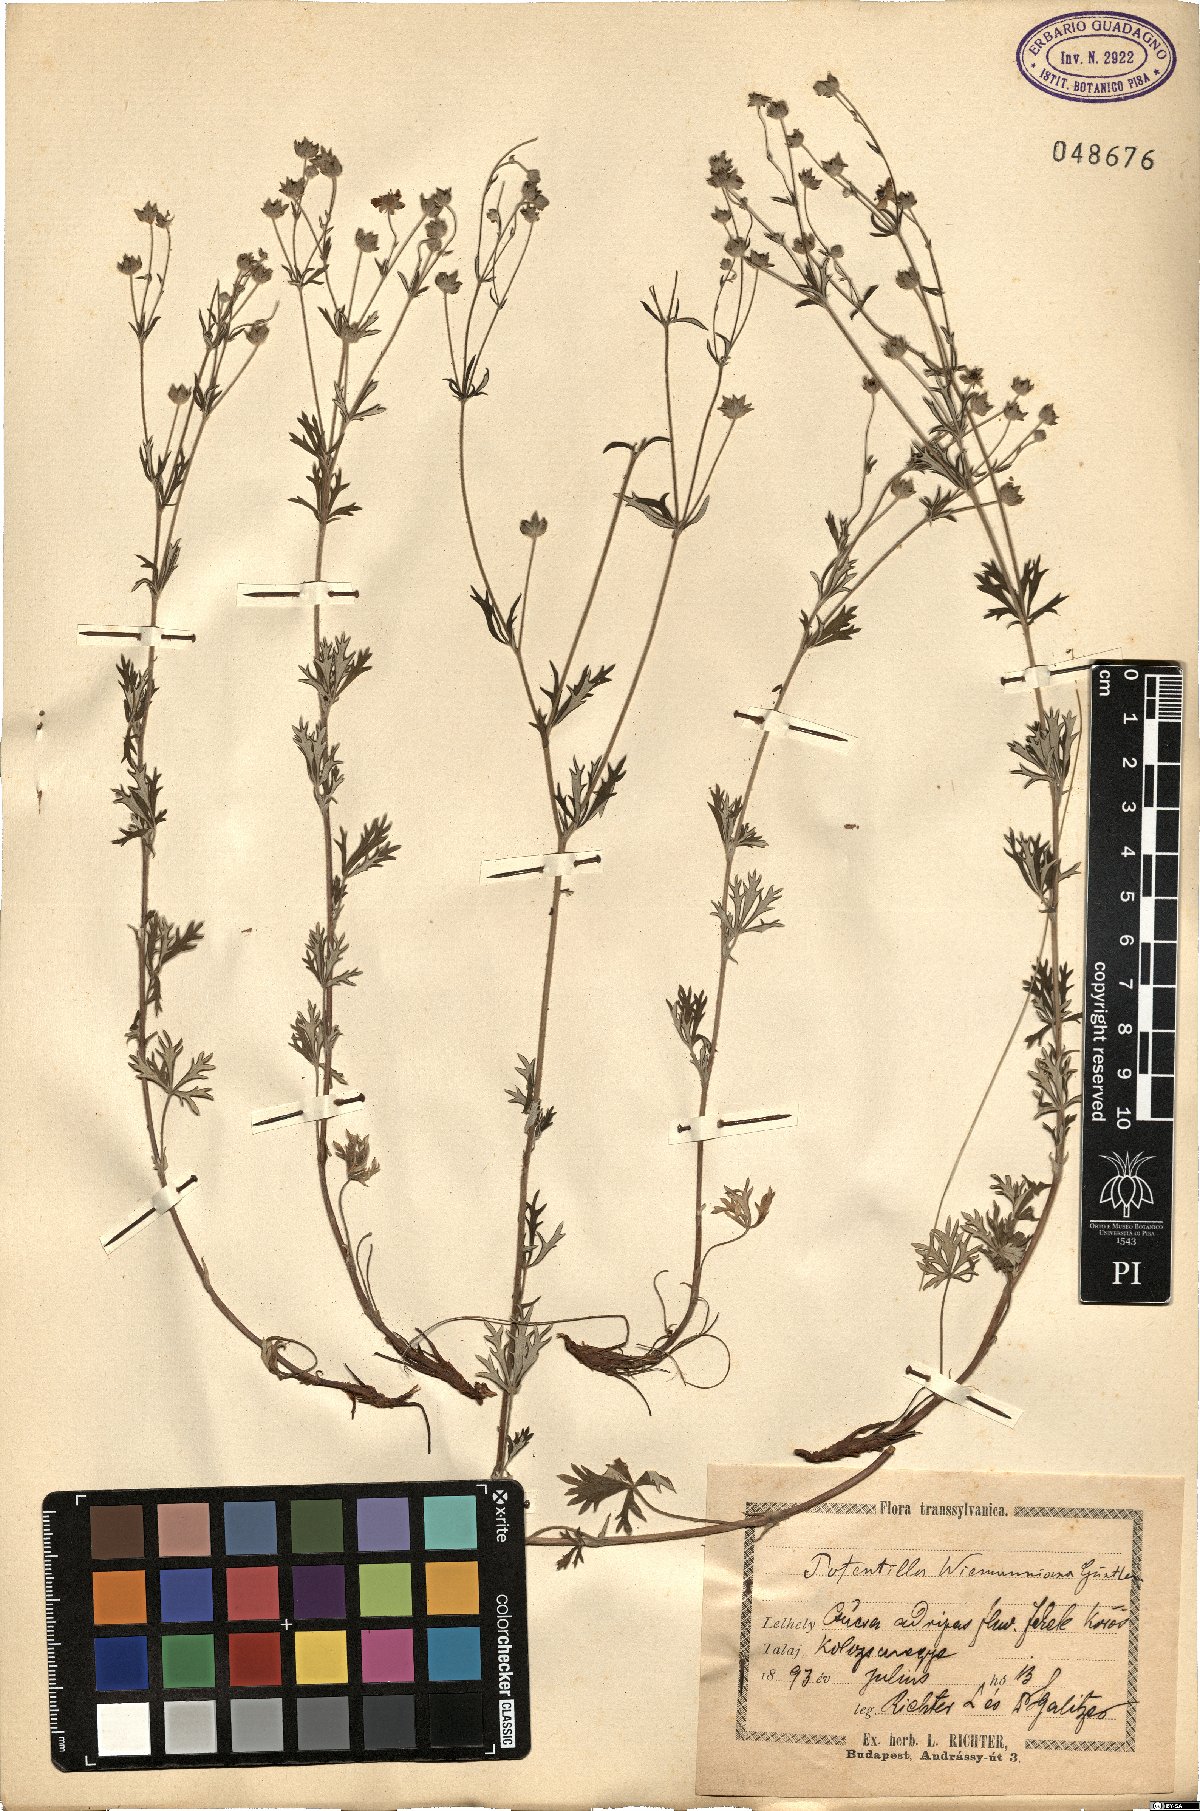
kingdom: Plantae
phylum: Tracheophyta
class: Magnoliopsida
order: Rosales
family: Rosaceae
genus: Potentilla
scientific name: Potentilla wimanniana
